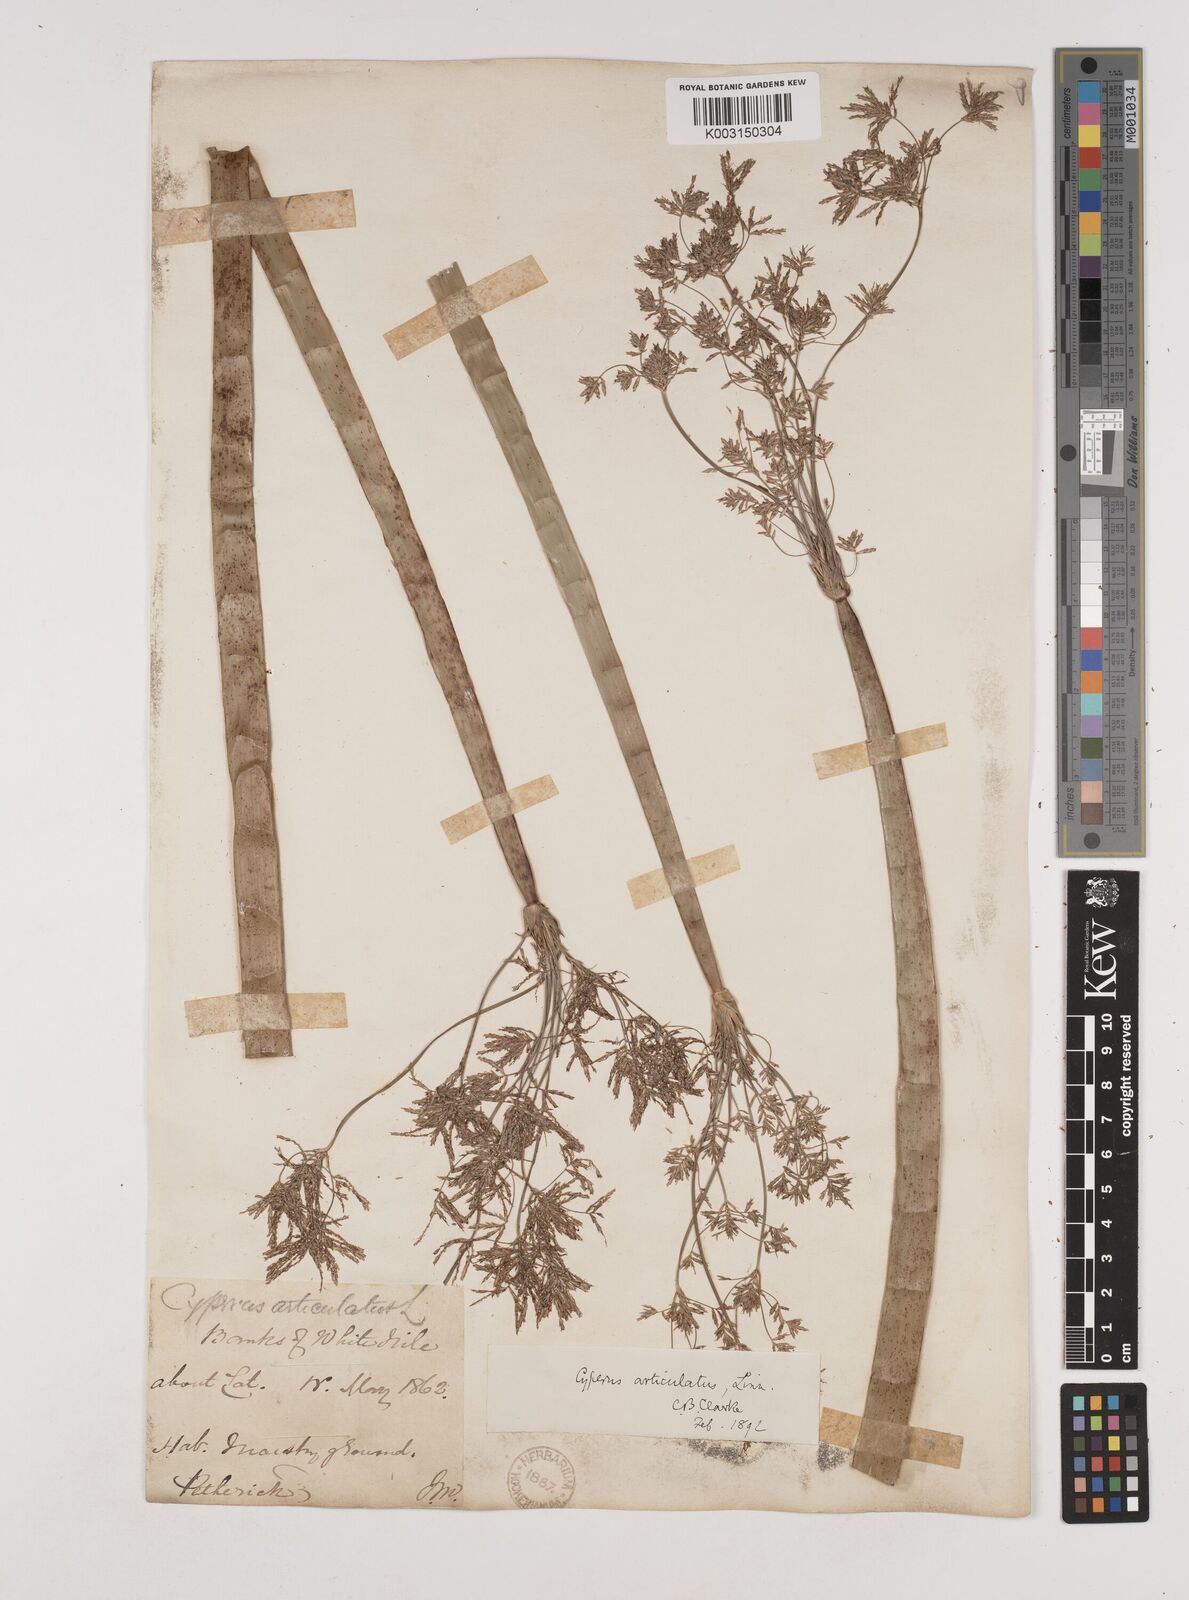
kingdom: Plantae
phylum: Tracheophyta
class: Liliopsida
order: Poales
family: Cyperaceae
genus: Cyperus
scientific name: Cyperus articulatus
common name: Jointed flatsedge
